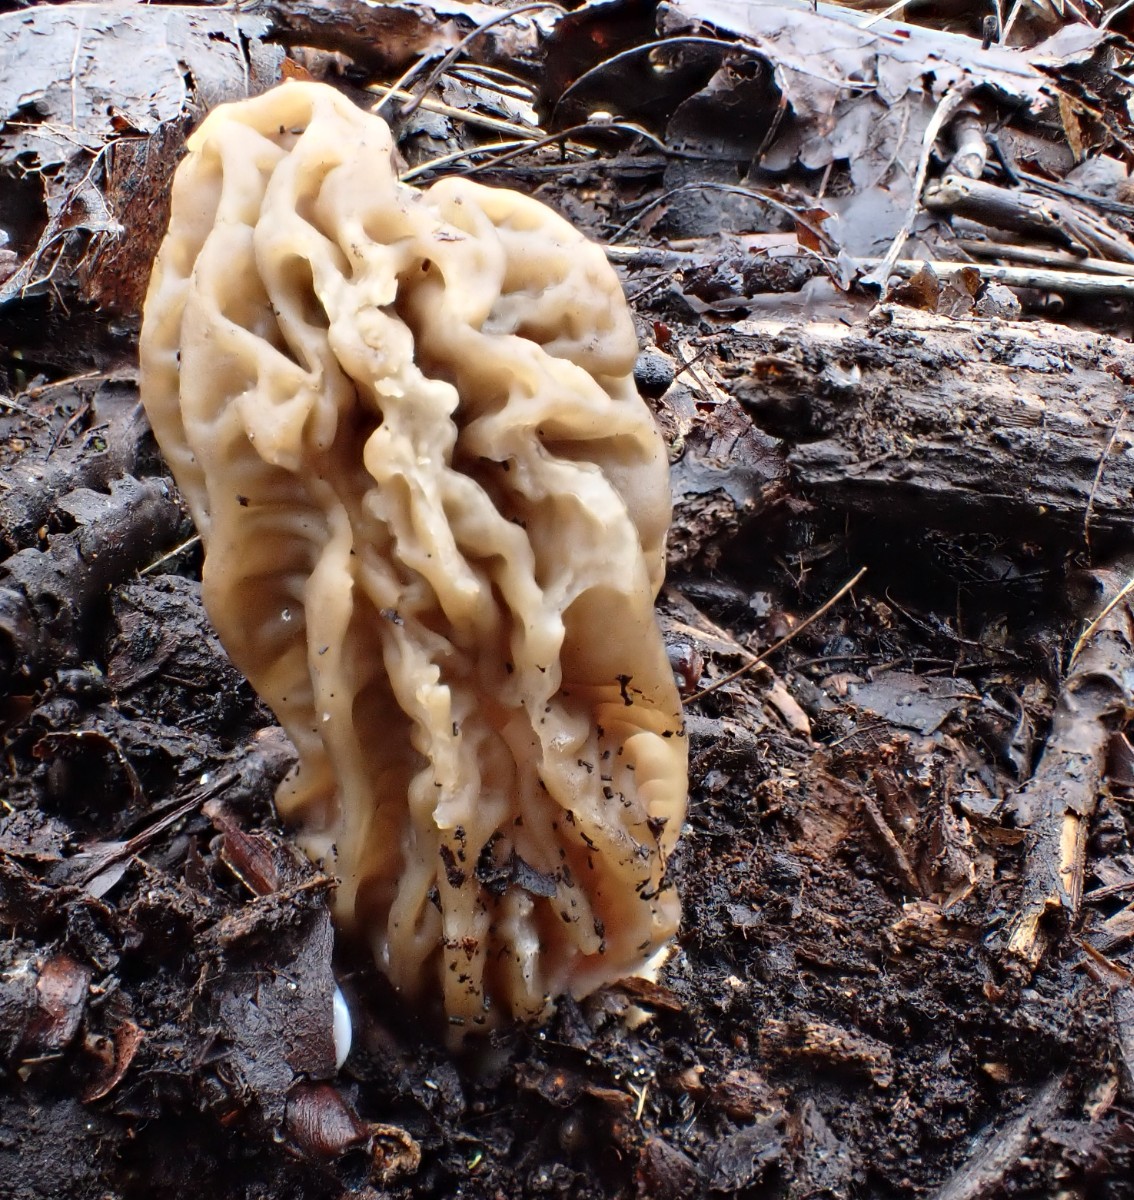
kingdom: Fungi
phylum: Ascomycota
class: Pezizomycetes
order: Pezizales
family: Morchellaceae
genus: Verpa
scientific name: Verpa bohemica
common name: rynket klokkemorkel
